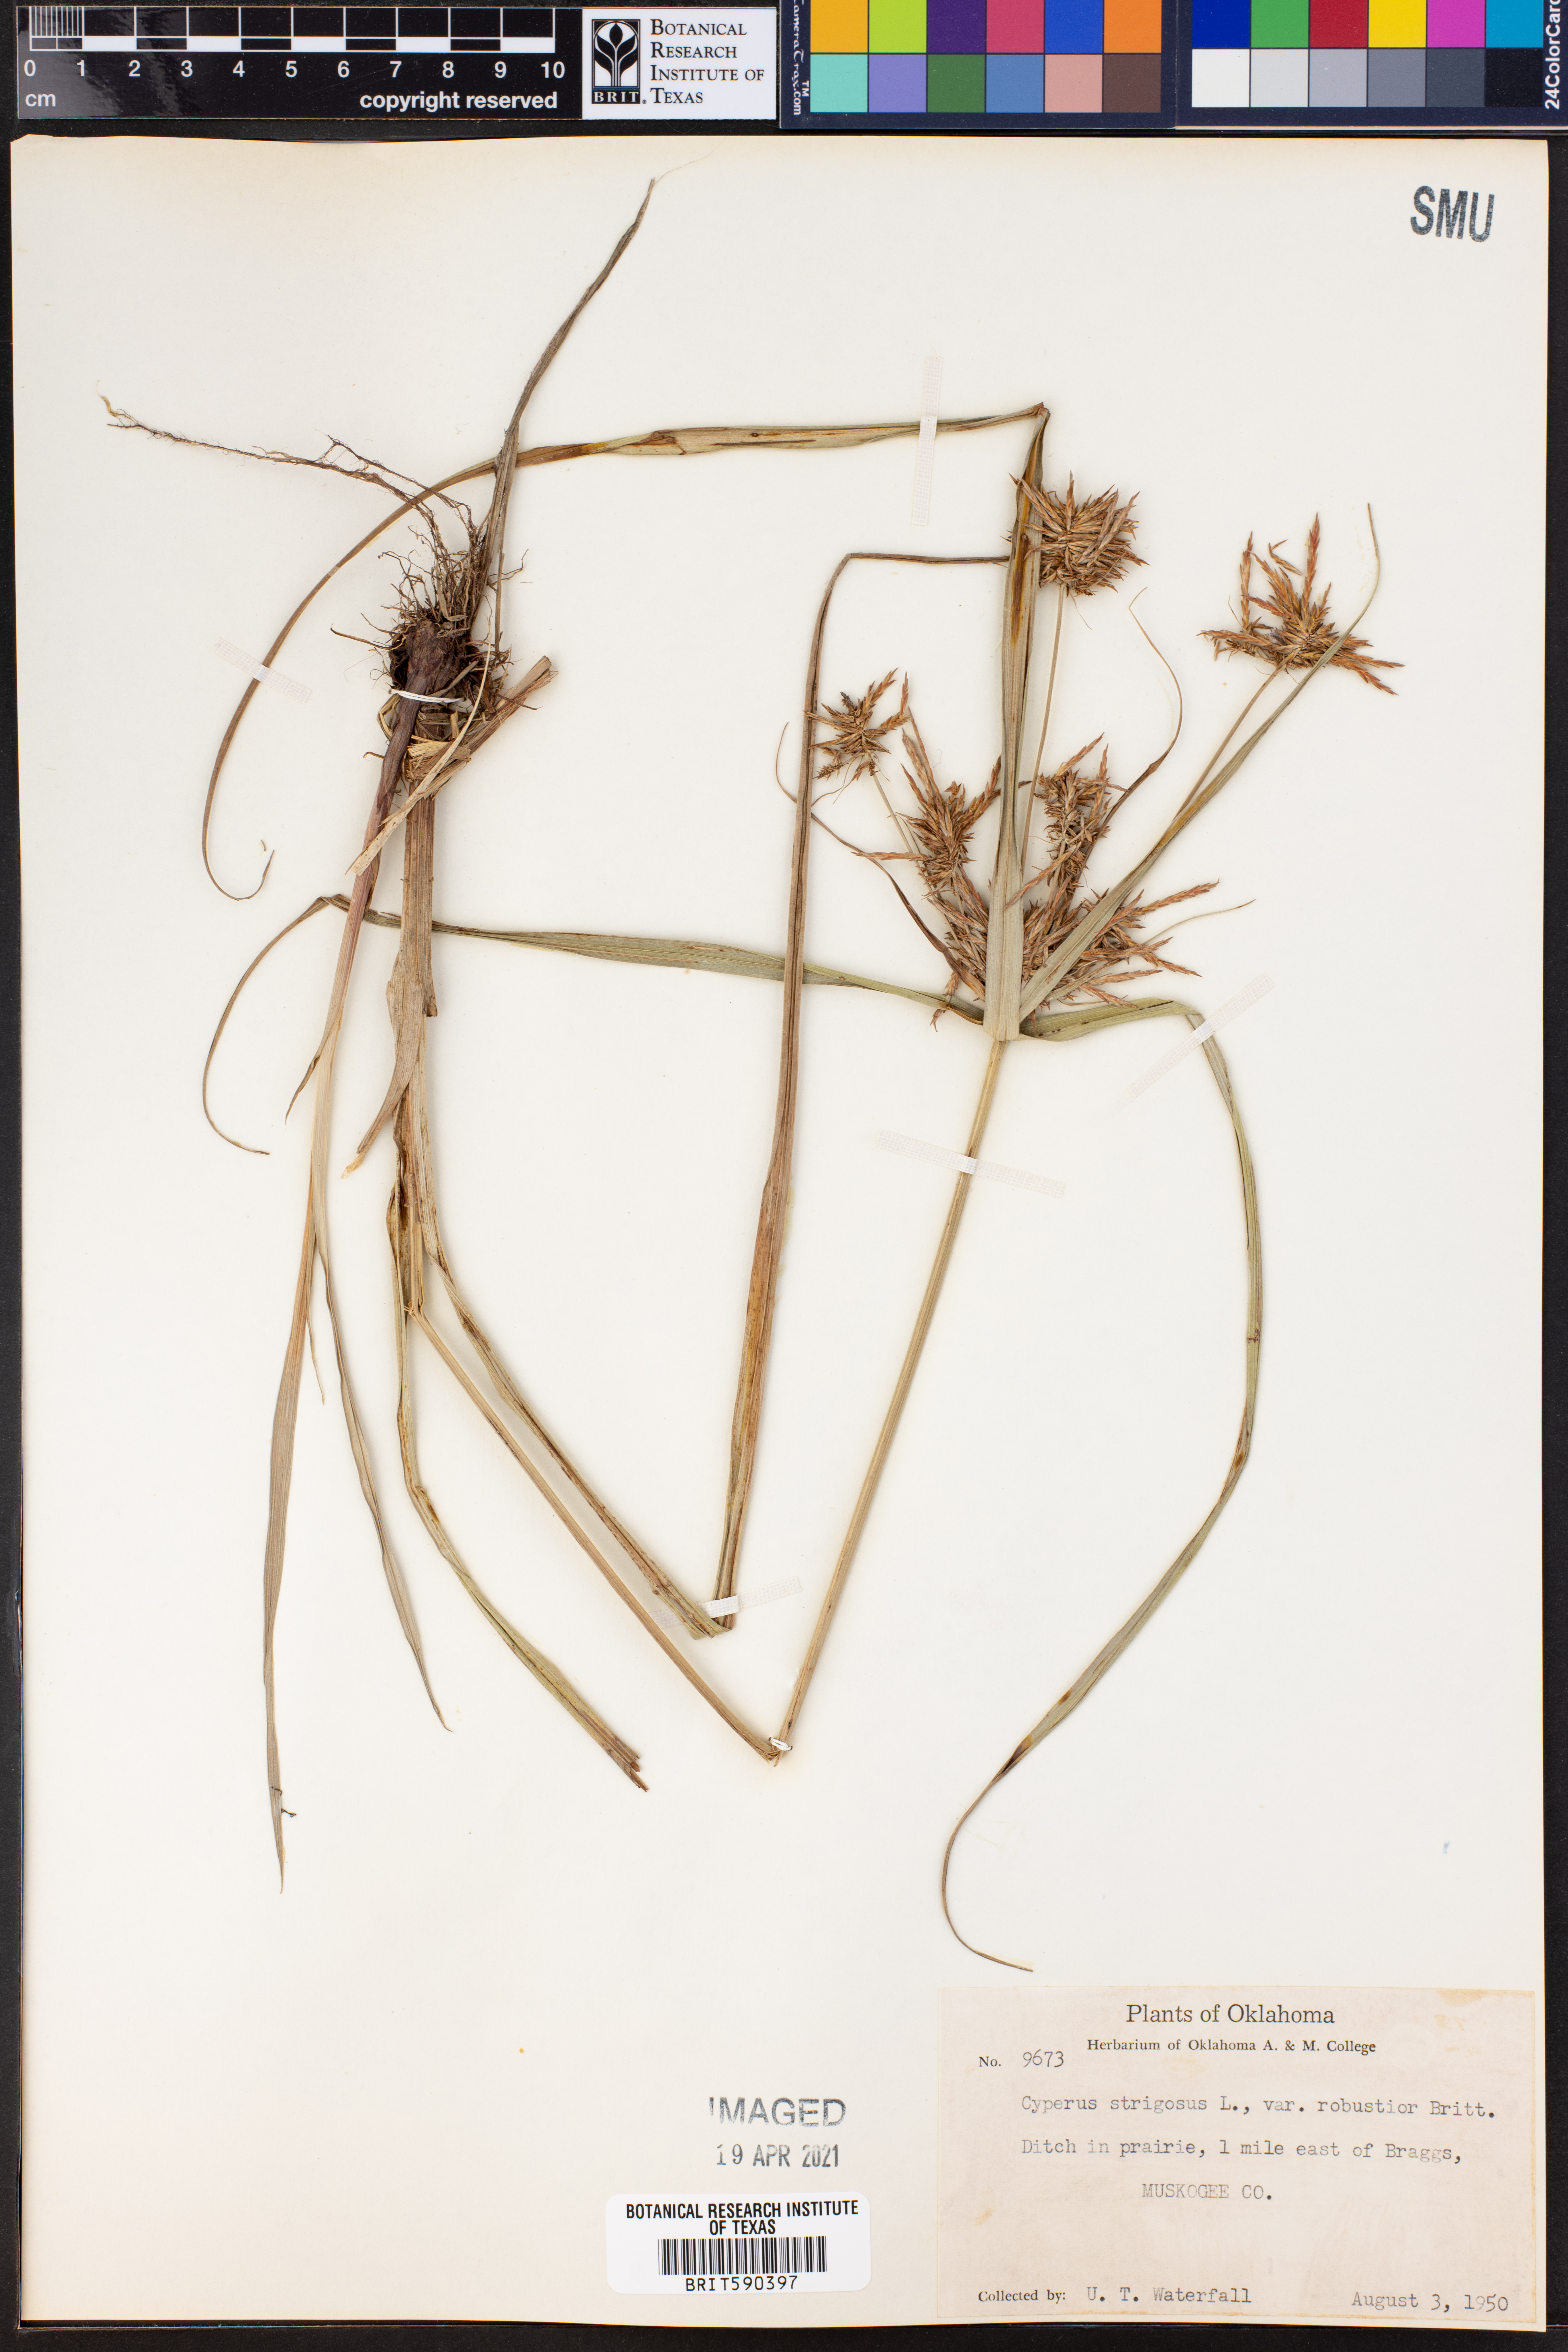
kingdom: Plantae
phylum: Tracheophyta
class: Liliopsida
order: Poales
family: Cyperaceae
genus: Cyperus
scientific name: Cyperus strigosus
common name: False nutsedge
